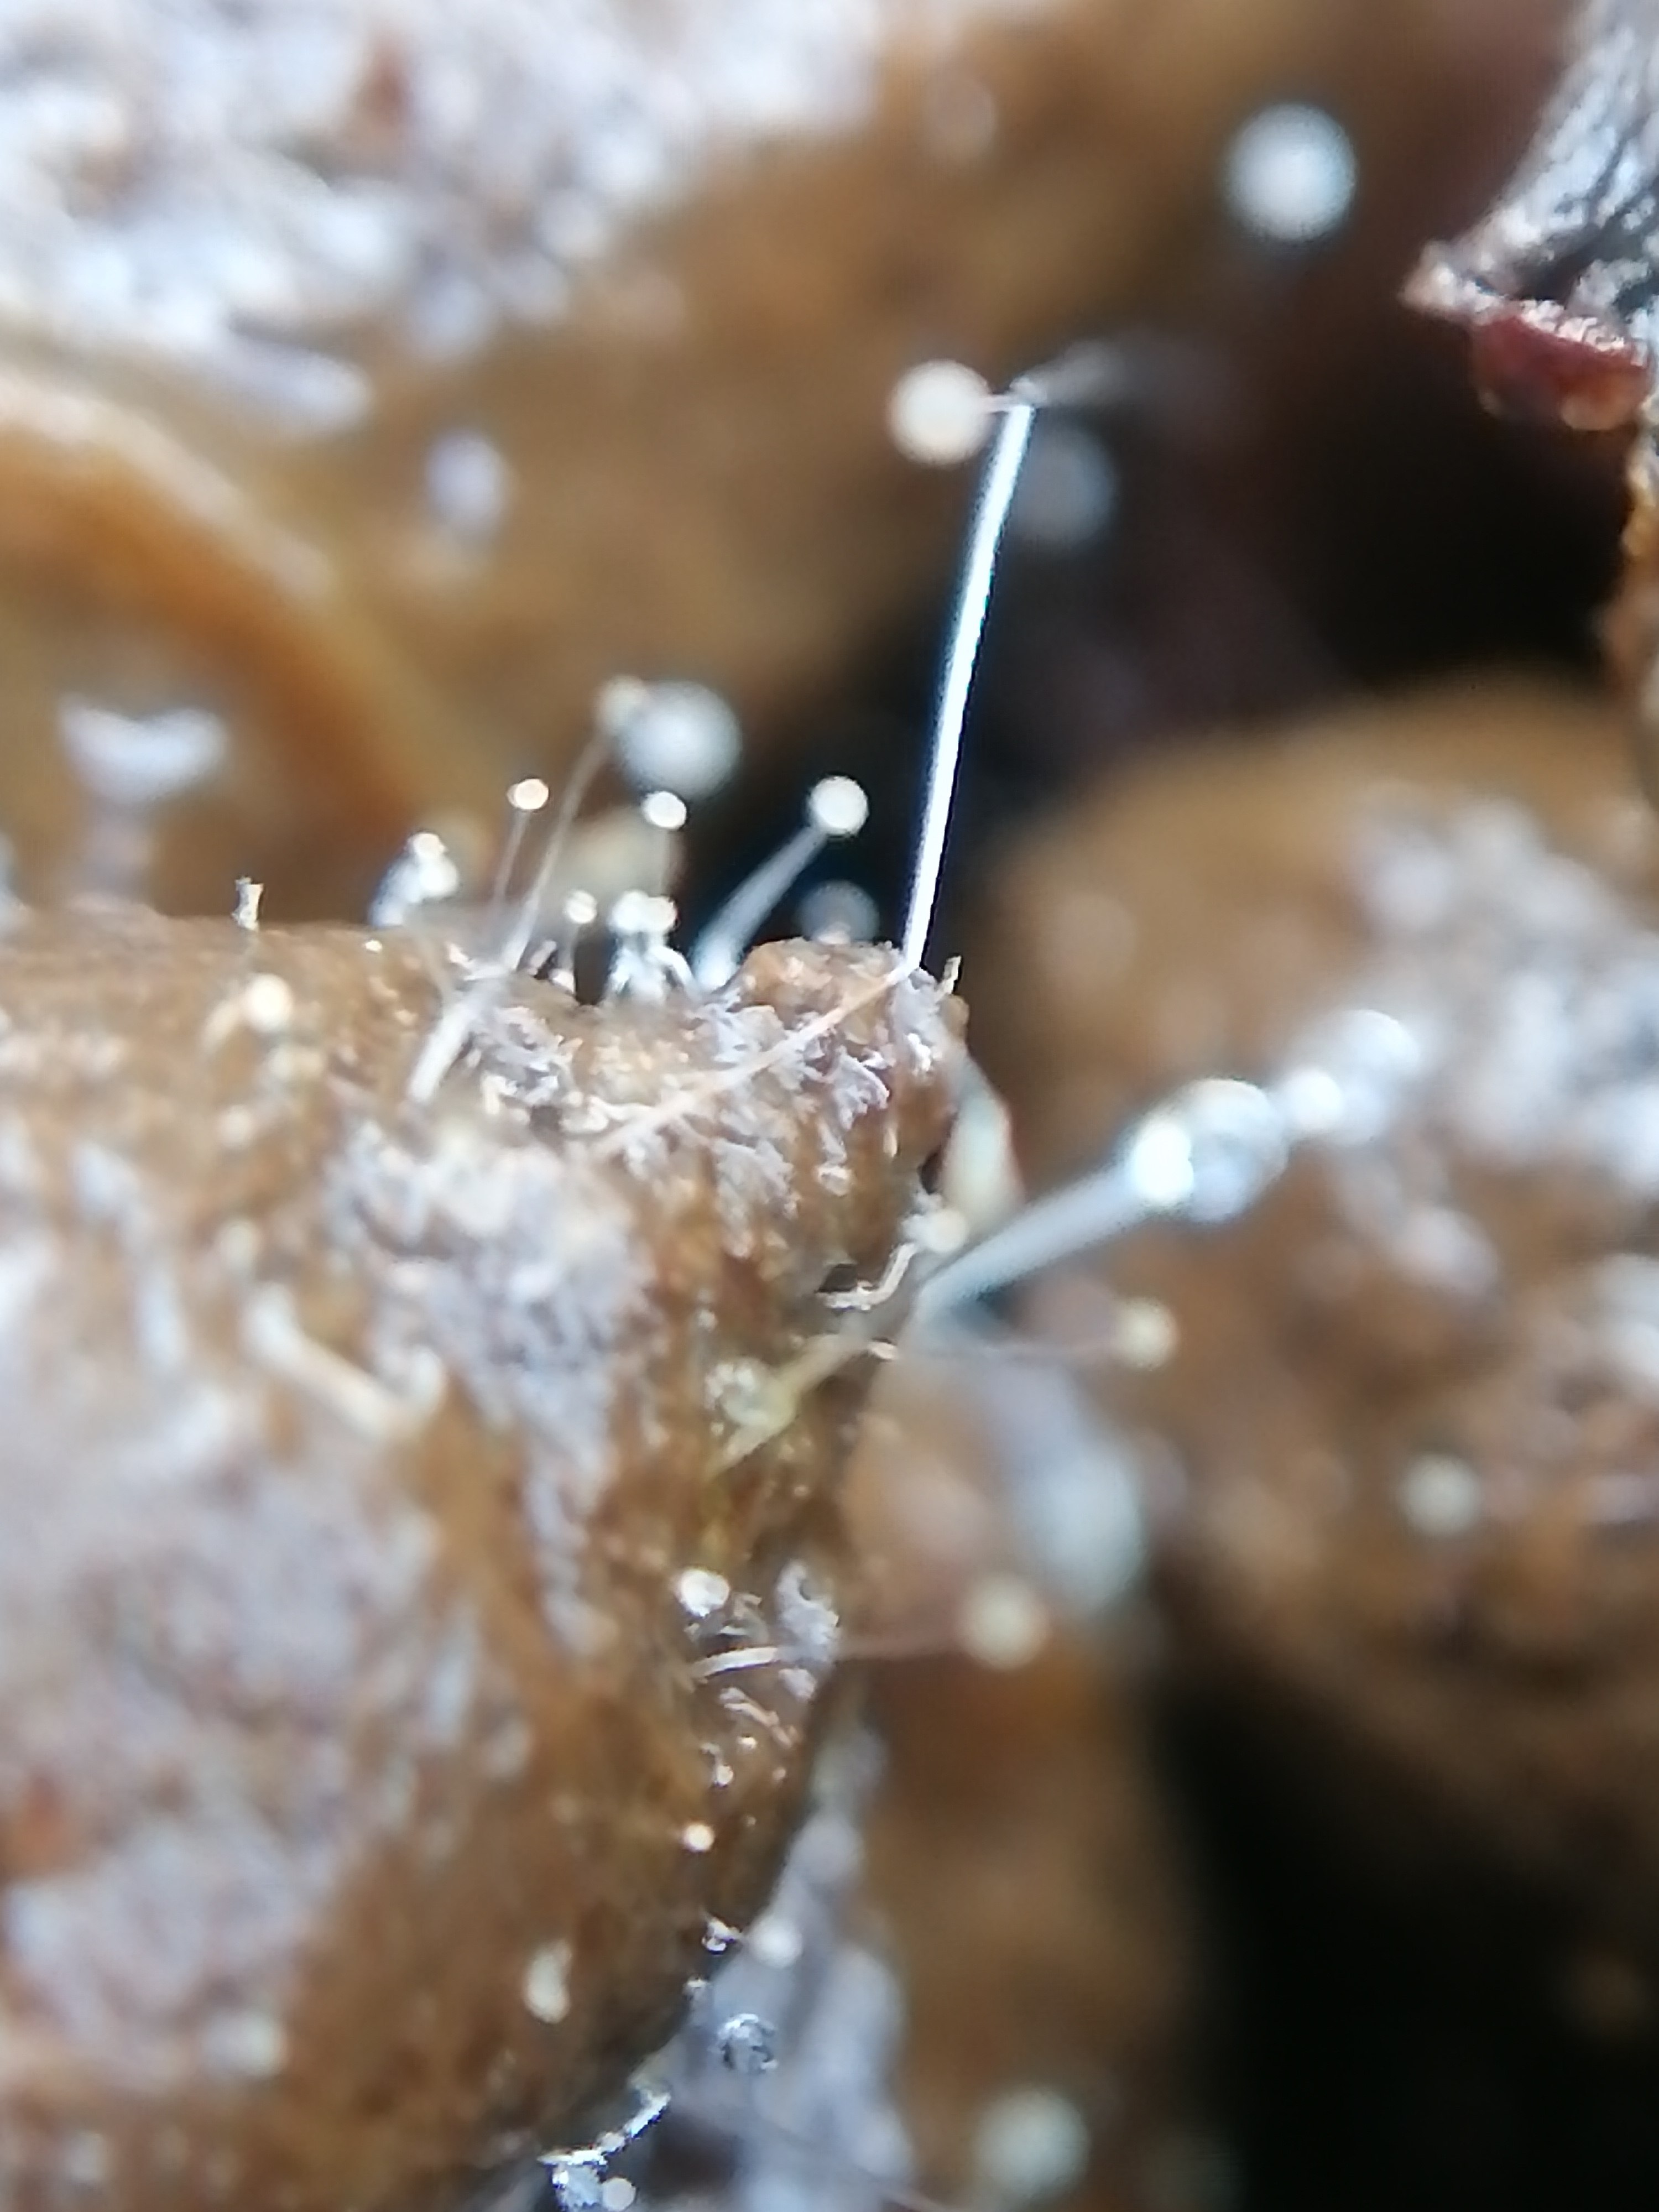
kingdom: Fungi
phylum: Mucoromycota
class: Mucoromycetes
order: Mucorales
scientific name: Mucorales
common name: mugordenen
